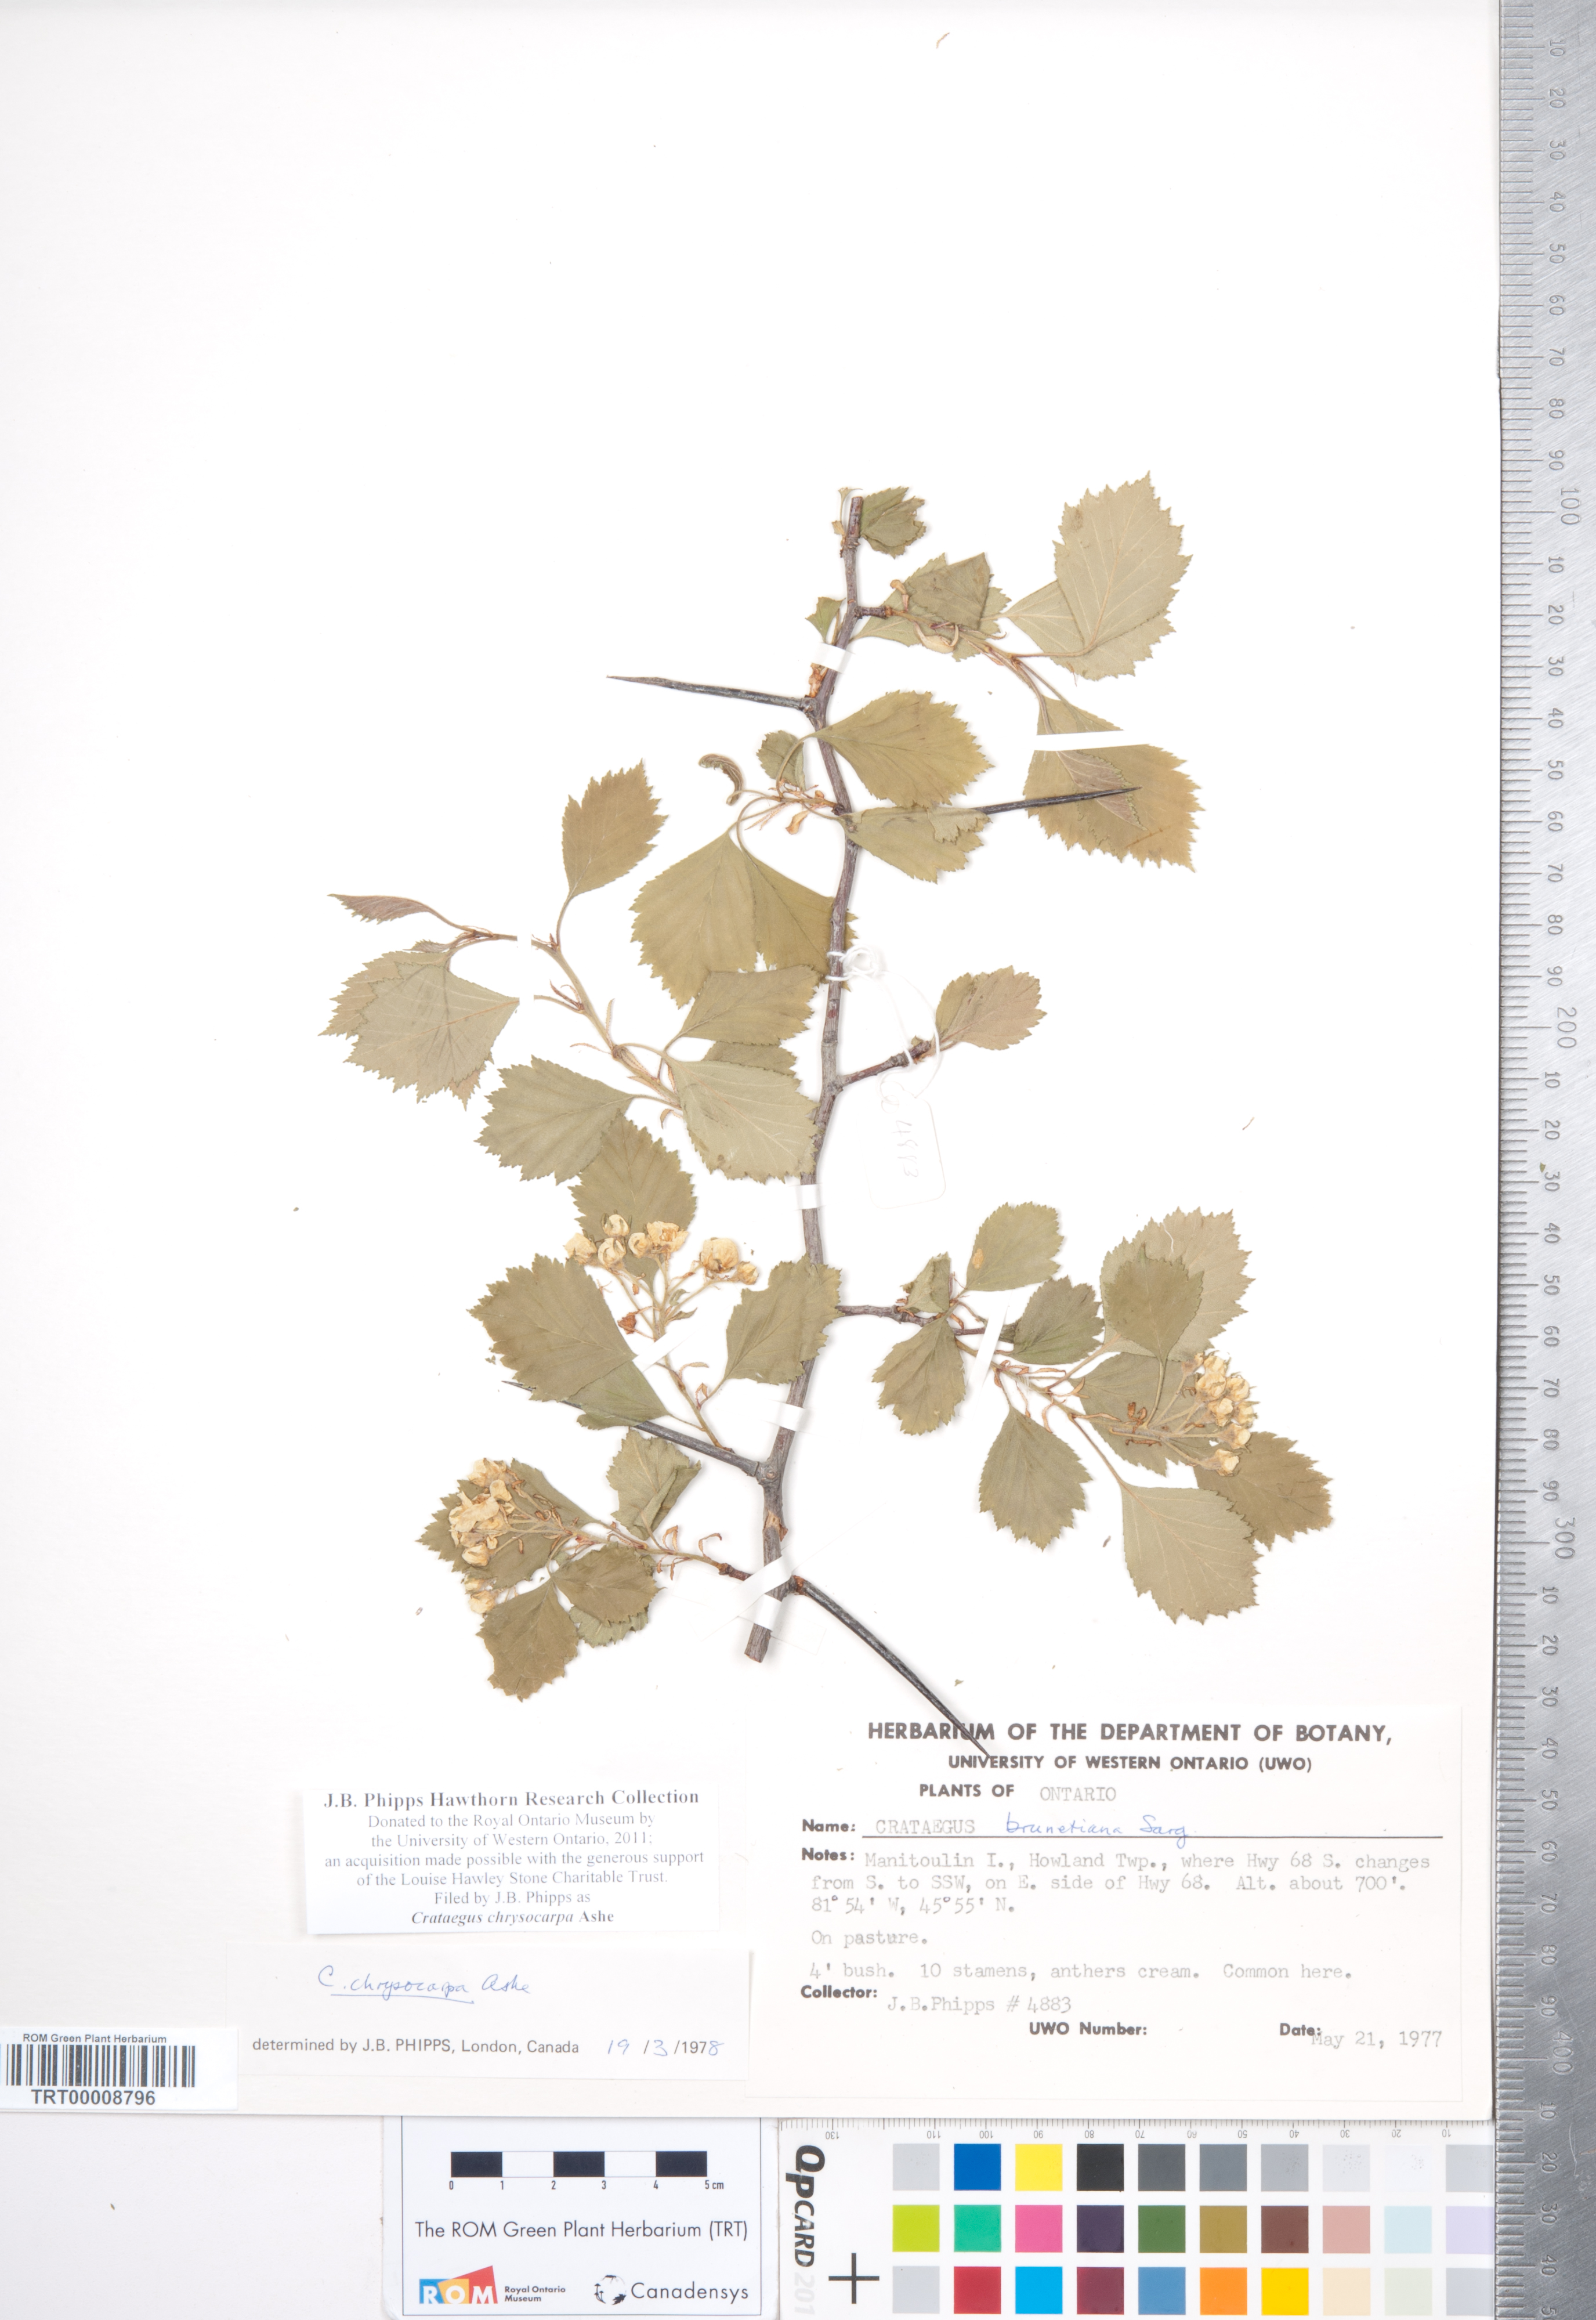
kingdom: Plantae
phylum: Tracheophyta
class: Magnoliopsida
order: Rosales
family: Rosaceae
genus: Crataegus
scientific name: Crataegus chrysocarpa
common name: Fire-berry hawthorn
